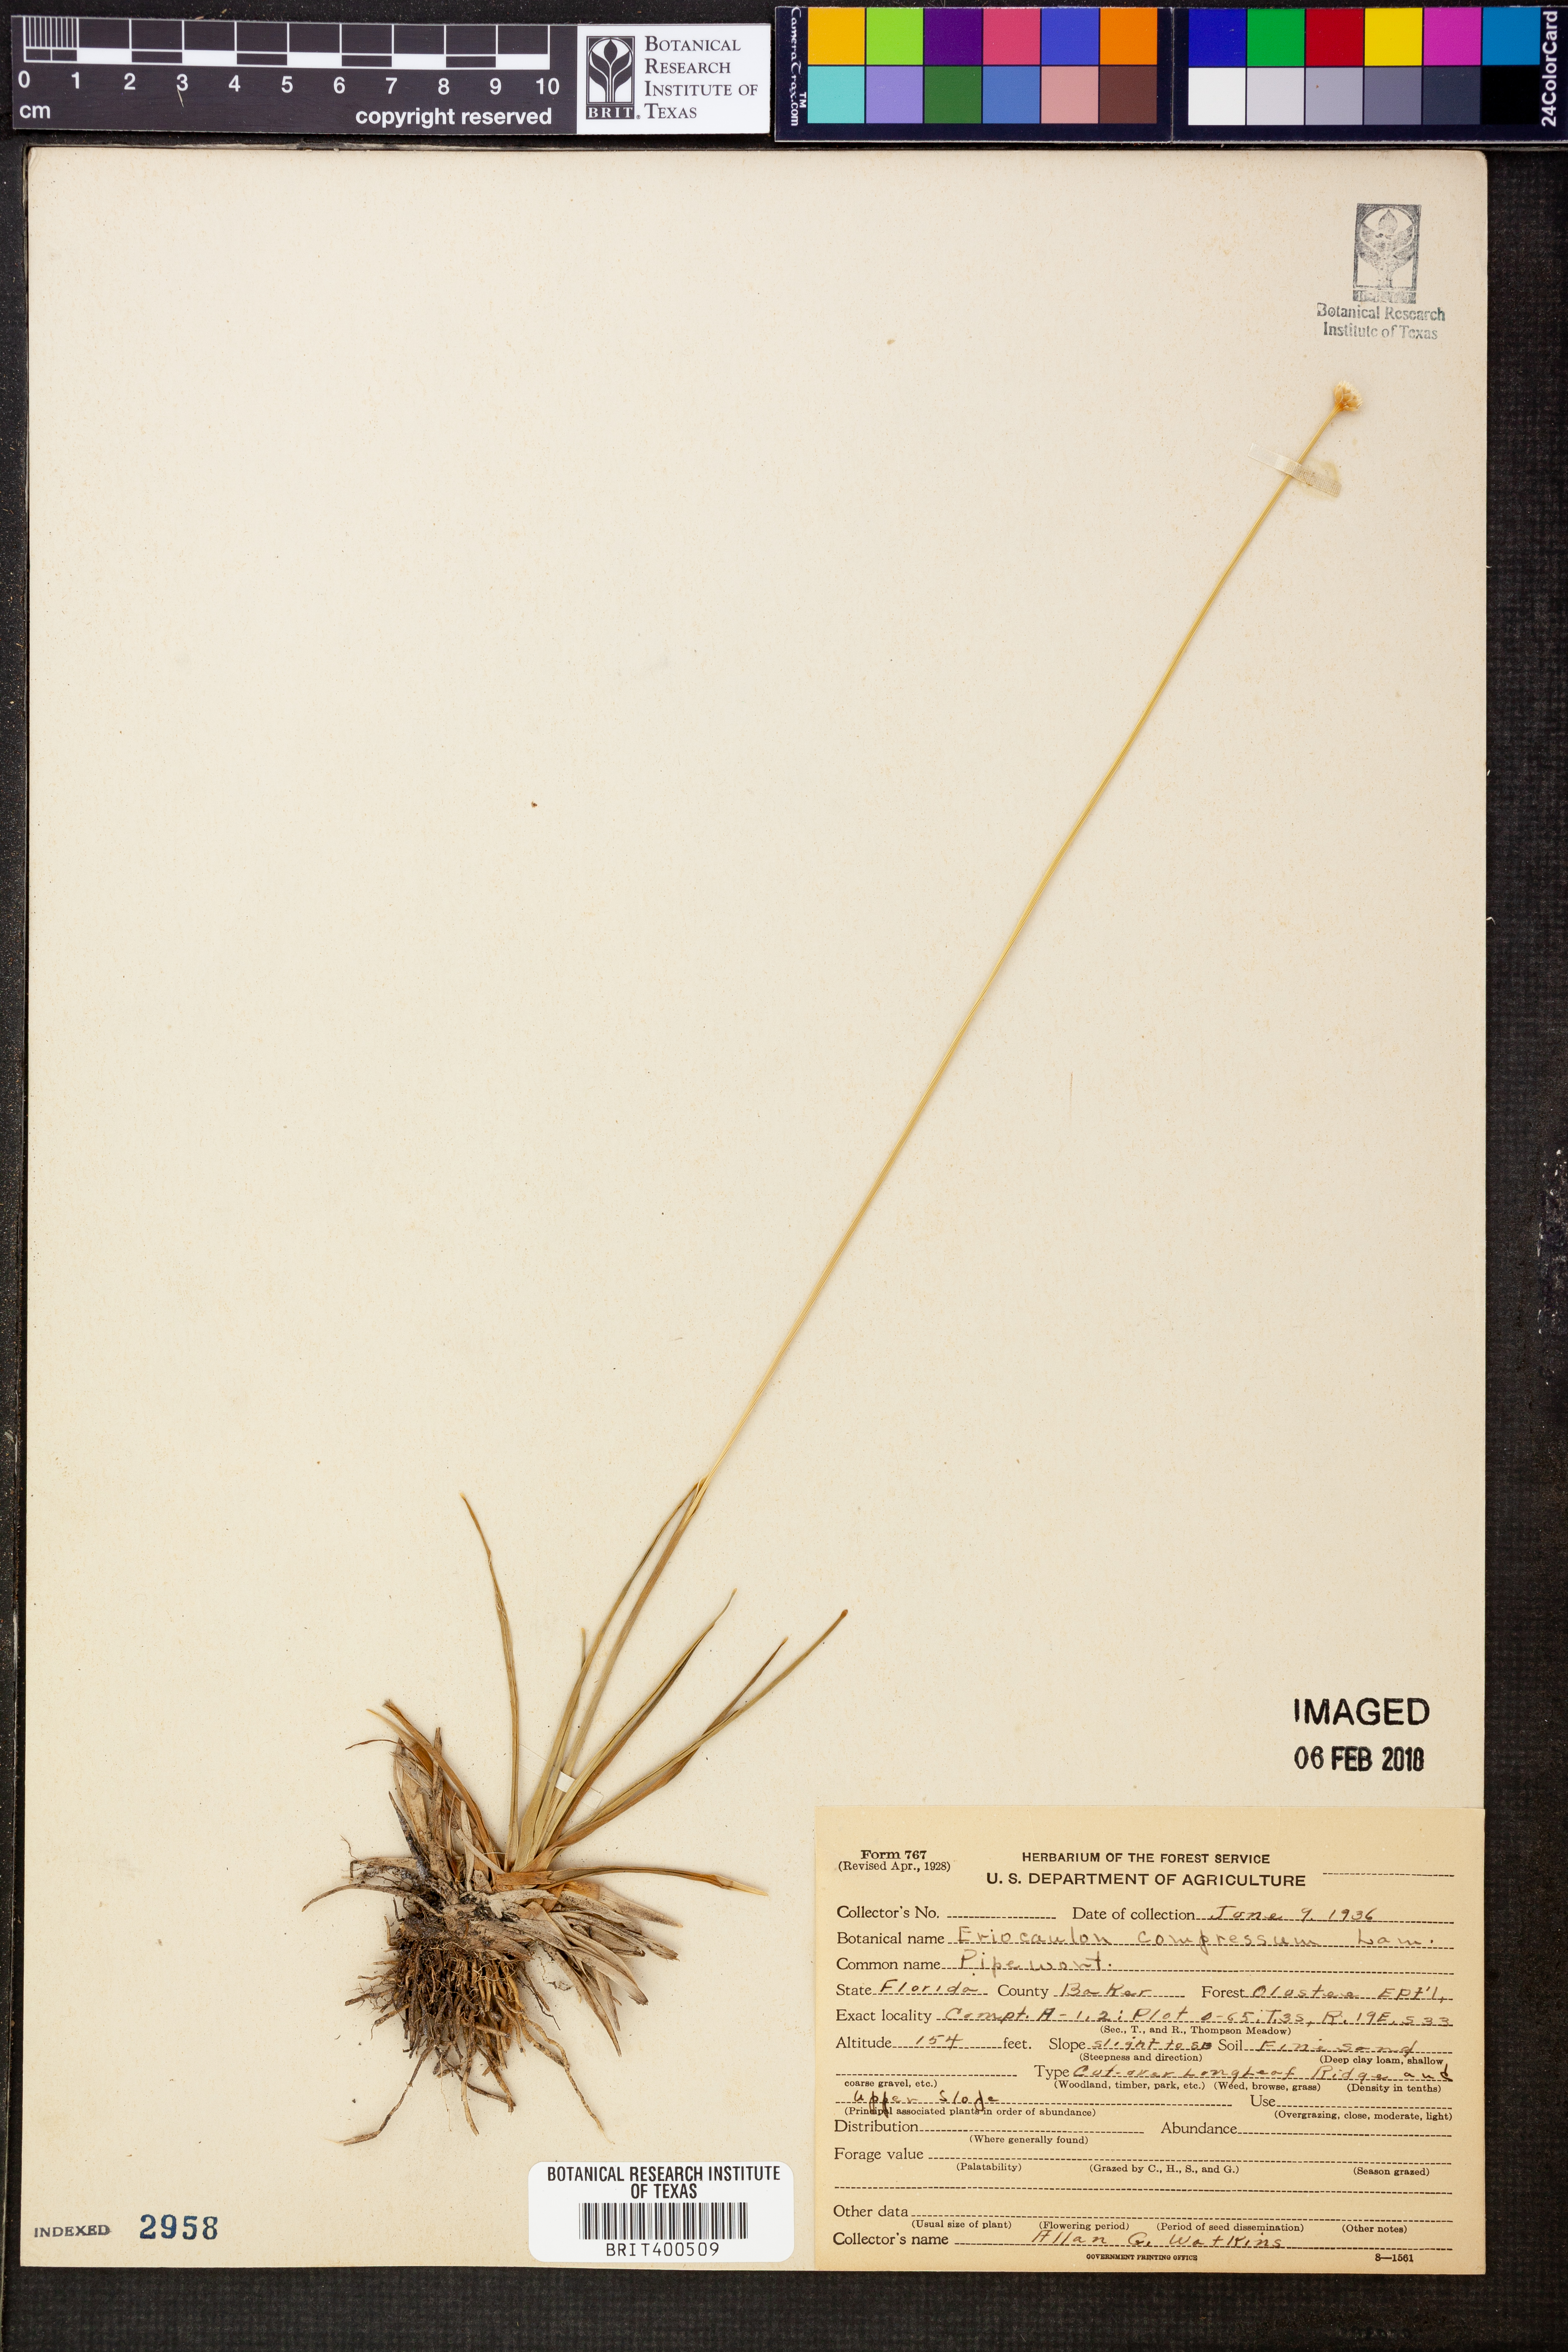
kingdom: Plantae
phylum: Tracheophyta
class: Liliopsida
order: Poales
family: Eriocaulaceae
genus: Eriocaulon
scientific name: Eriocaulon compressum
